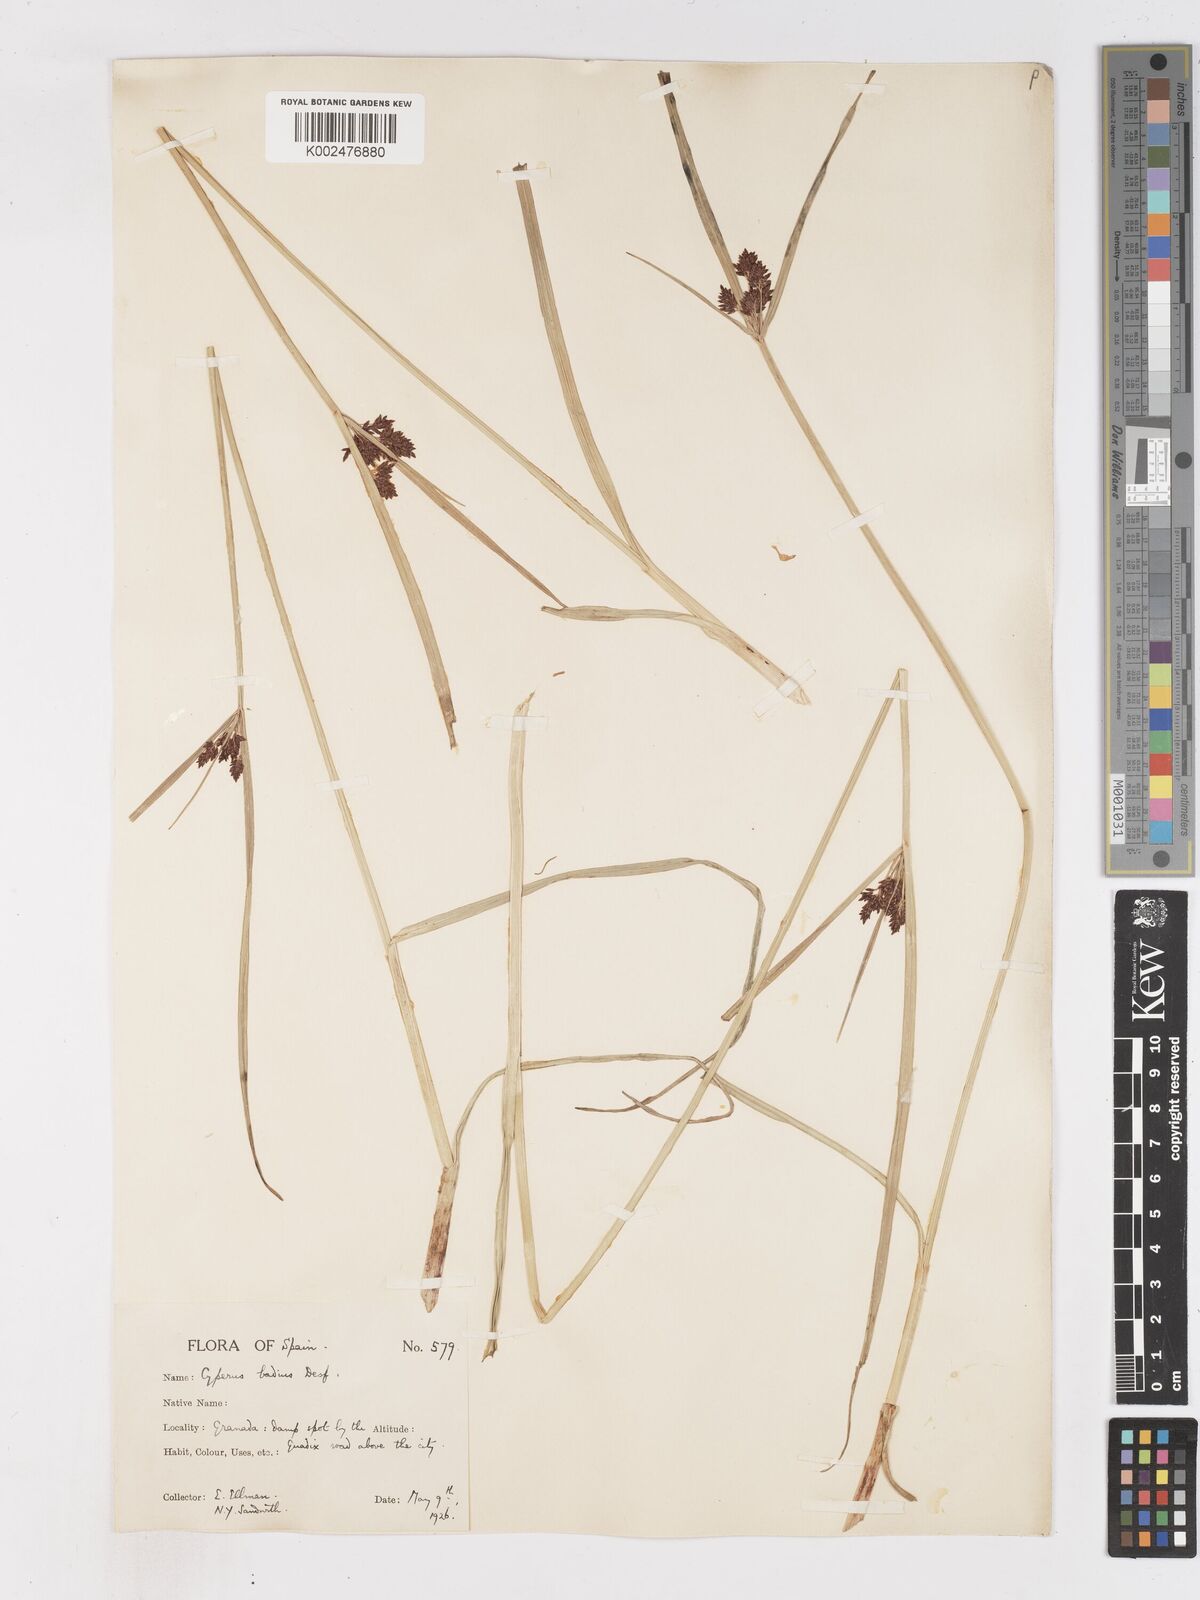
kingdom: Plantae
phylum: Tracheophyta
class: Liliopsida
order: Poales
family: Cyperaceae
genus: Cyperus
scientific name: Cyperus longus
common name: Galingale
